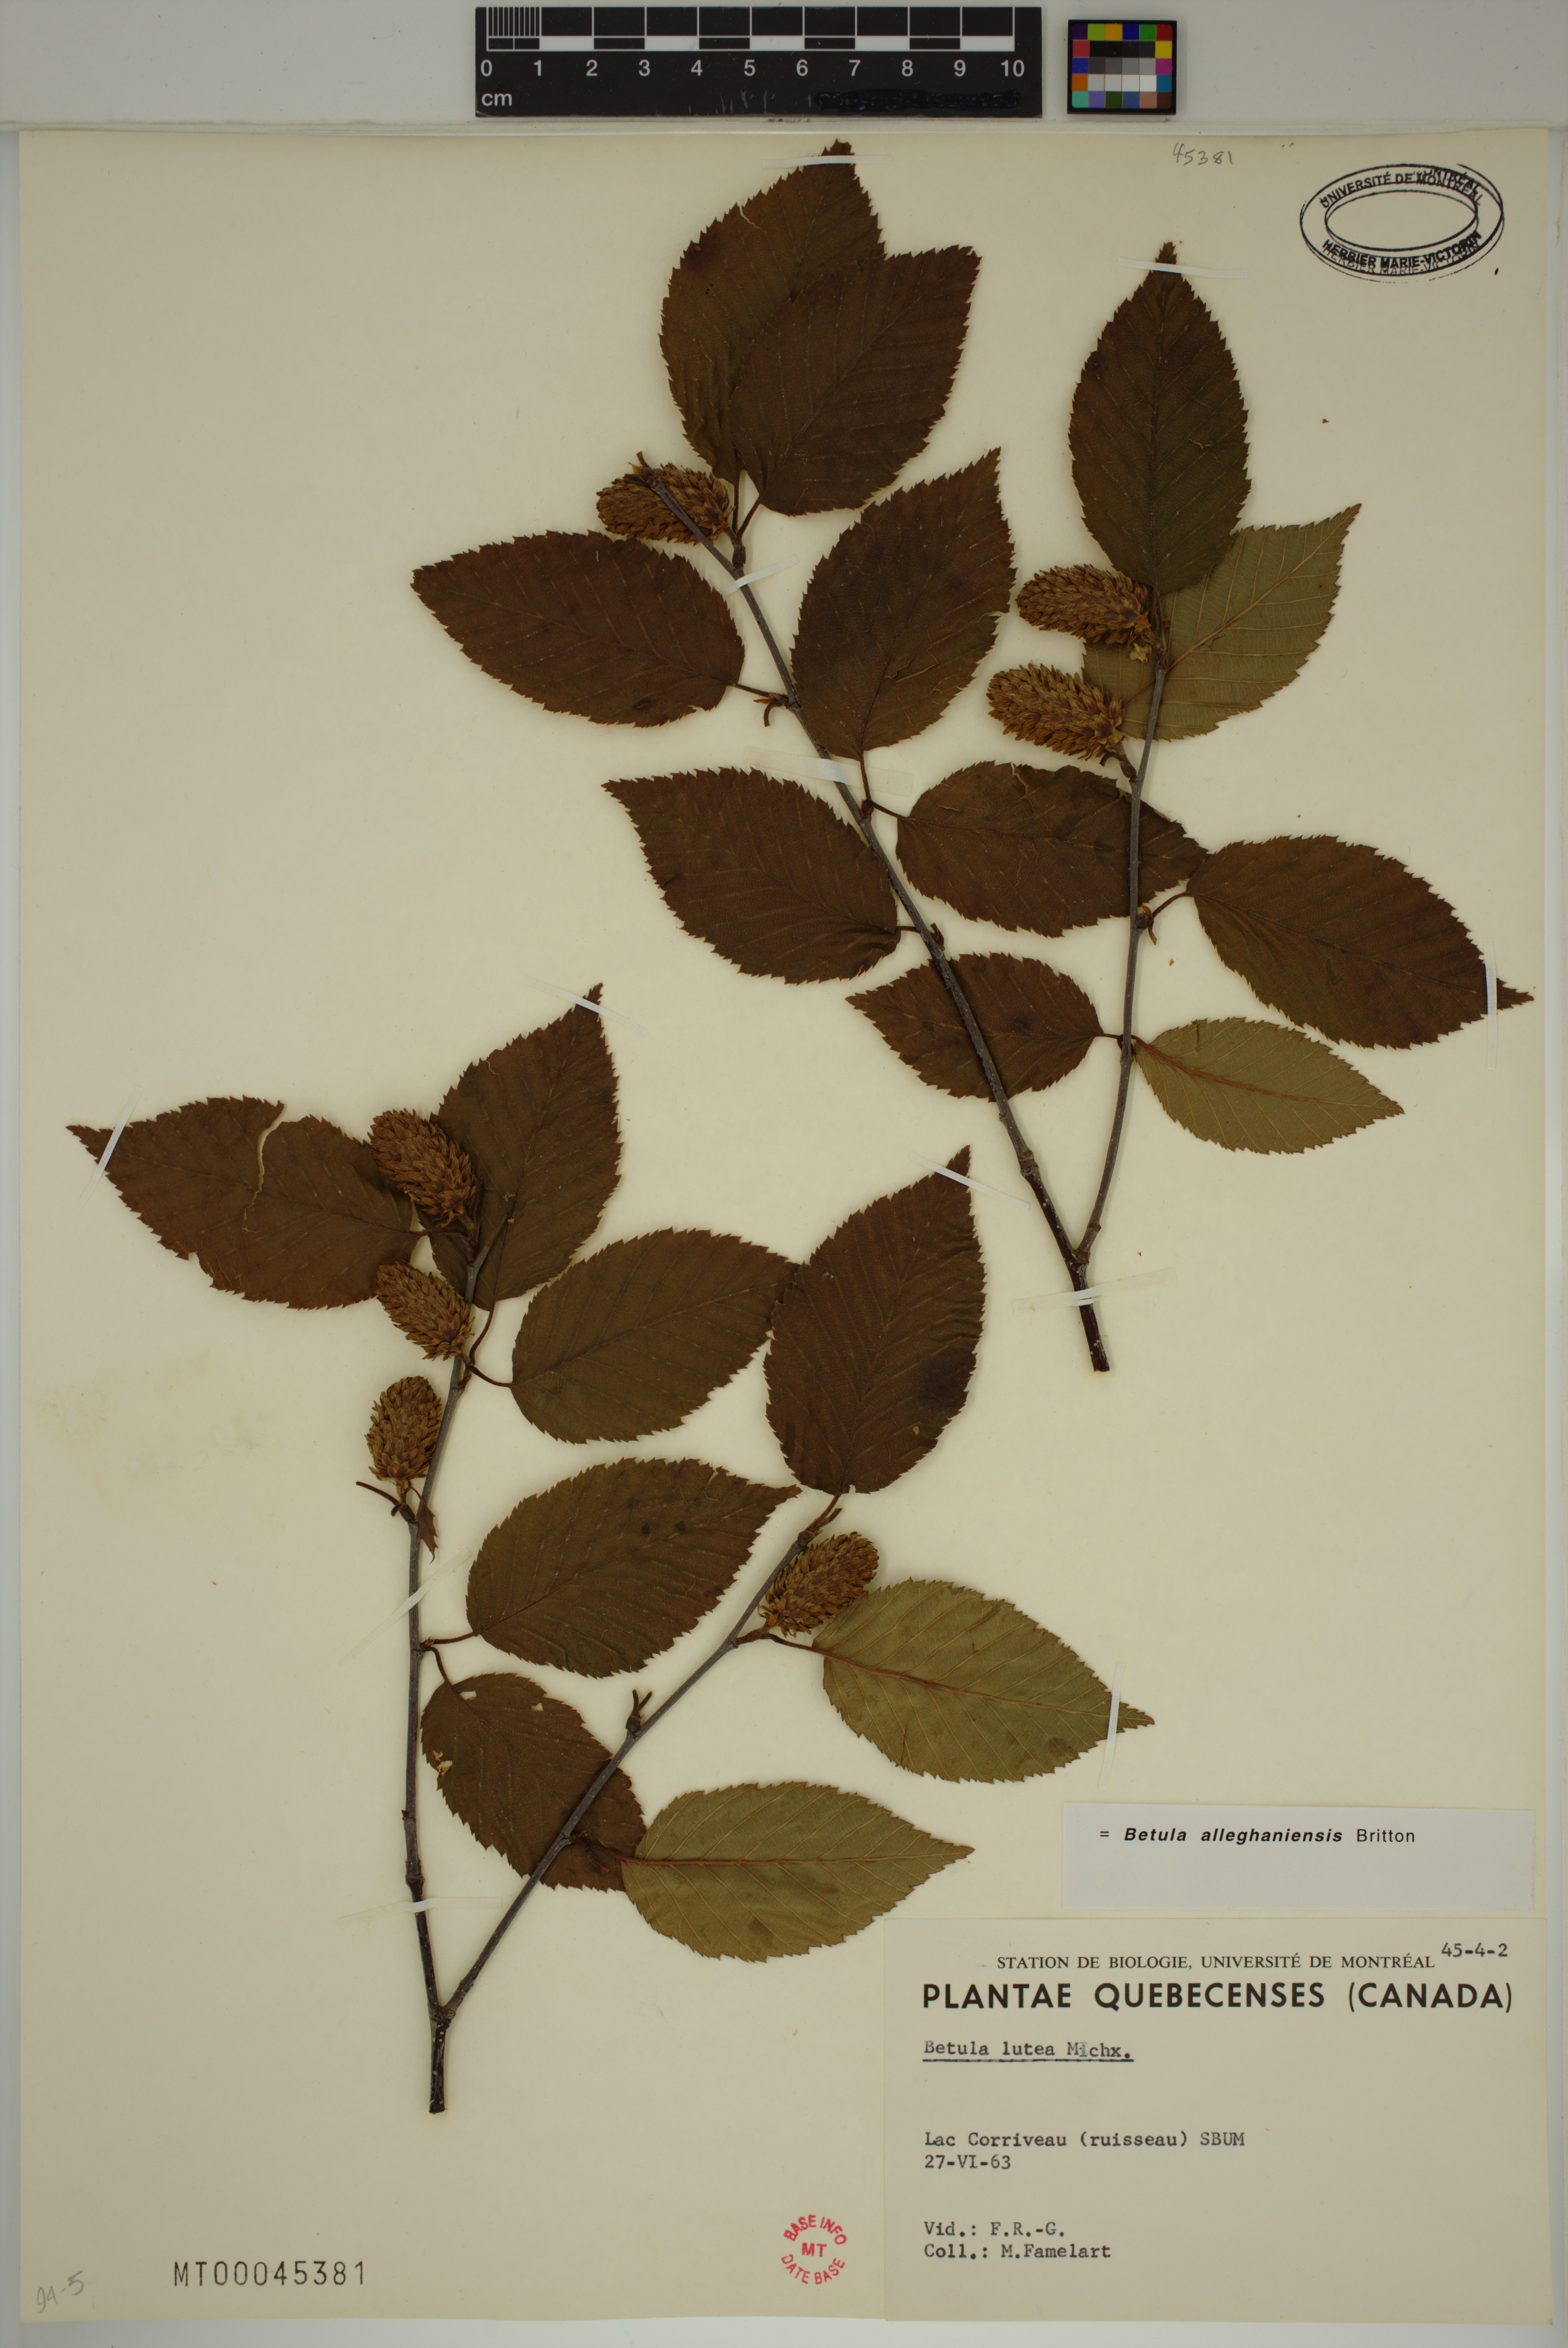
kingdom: Plantae
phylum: Tracheophyta
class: Magnoliopsida
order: Fagales
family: Betulaceae
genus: Betula
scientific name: Betula alleghaniensis
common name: Yellow birch
